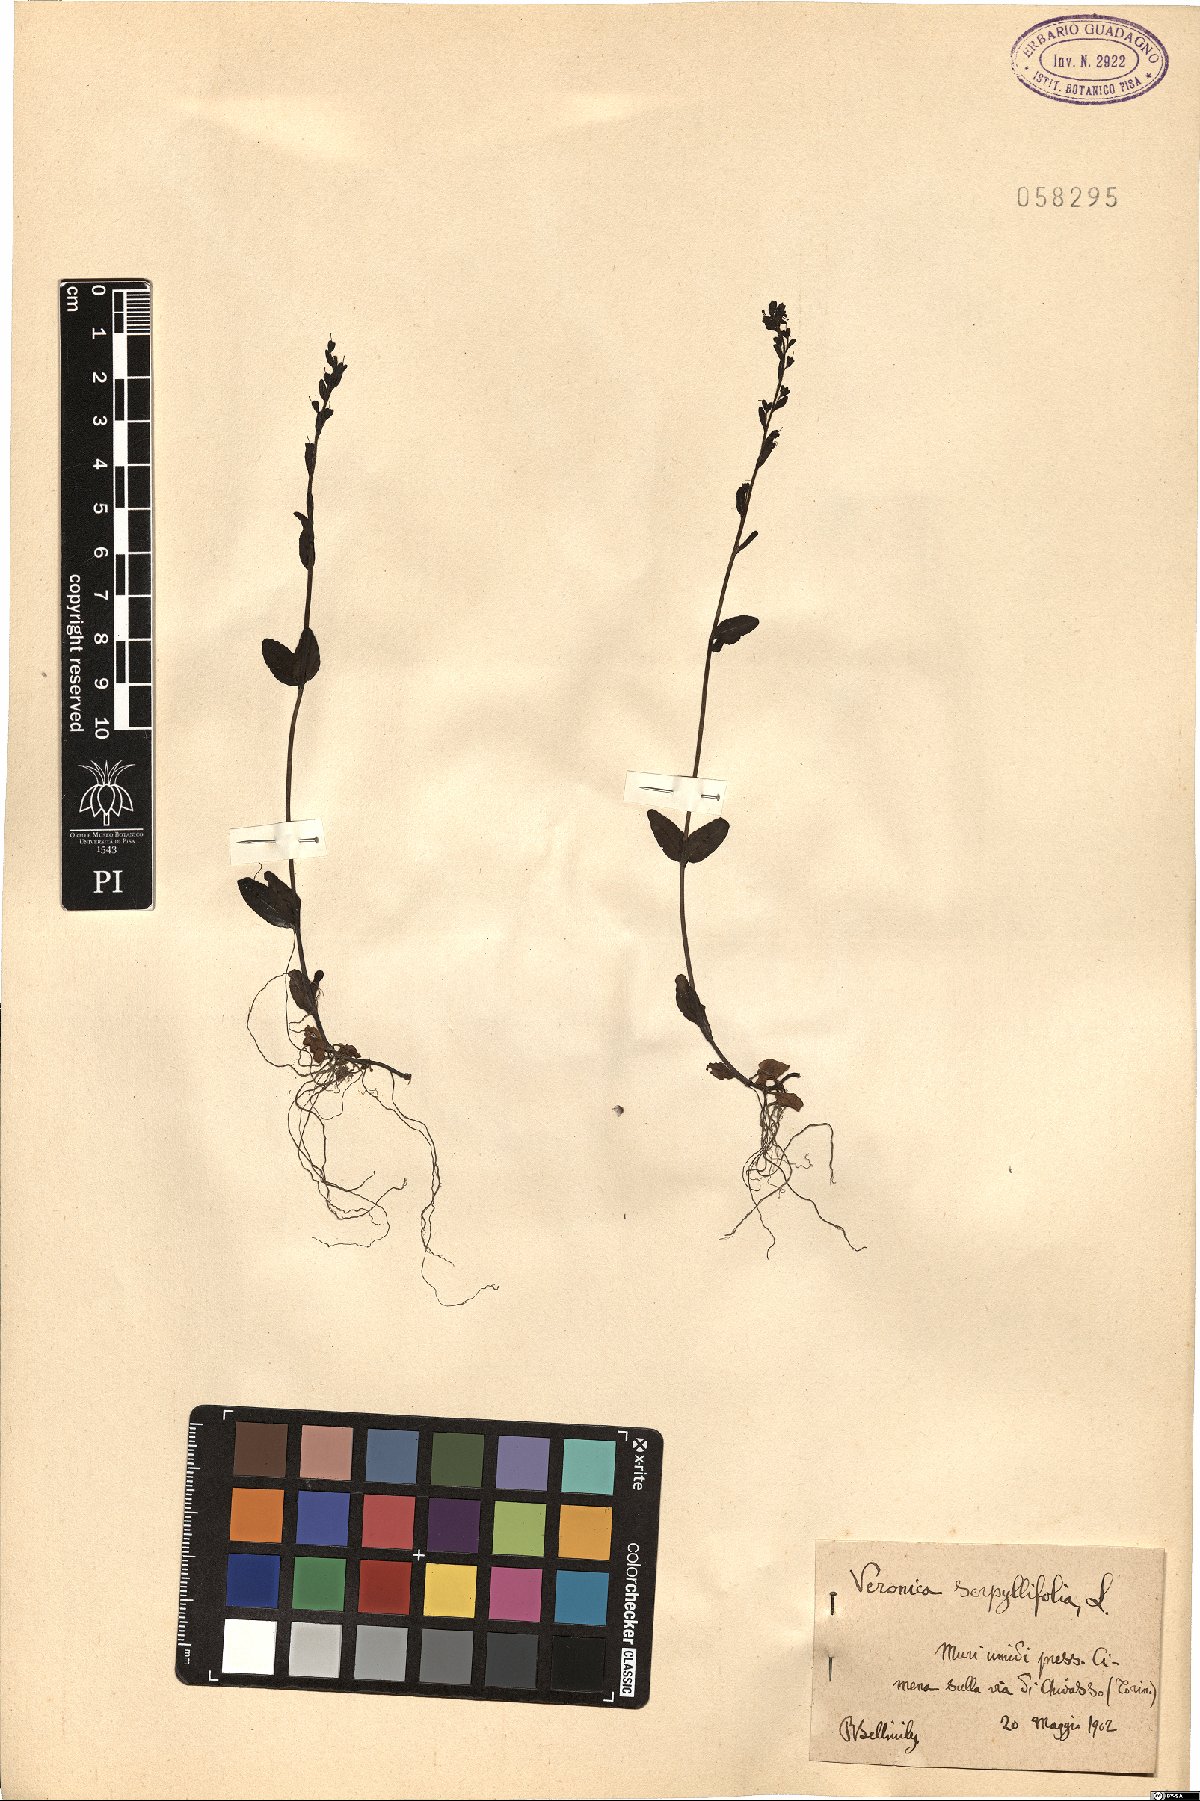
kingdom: Plantae
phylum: Tracheophyta
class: Magnoliopsida
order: Lamiales
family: Plantaginaceae
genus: Veronica
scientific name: Veronica serpyllifolia
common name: Thyme-leaved speedwell
